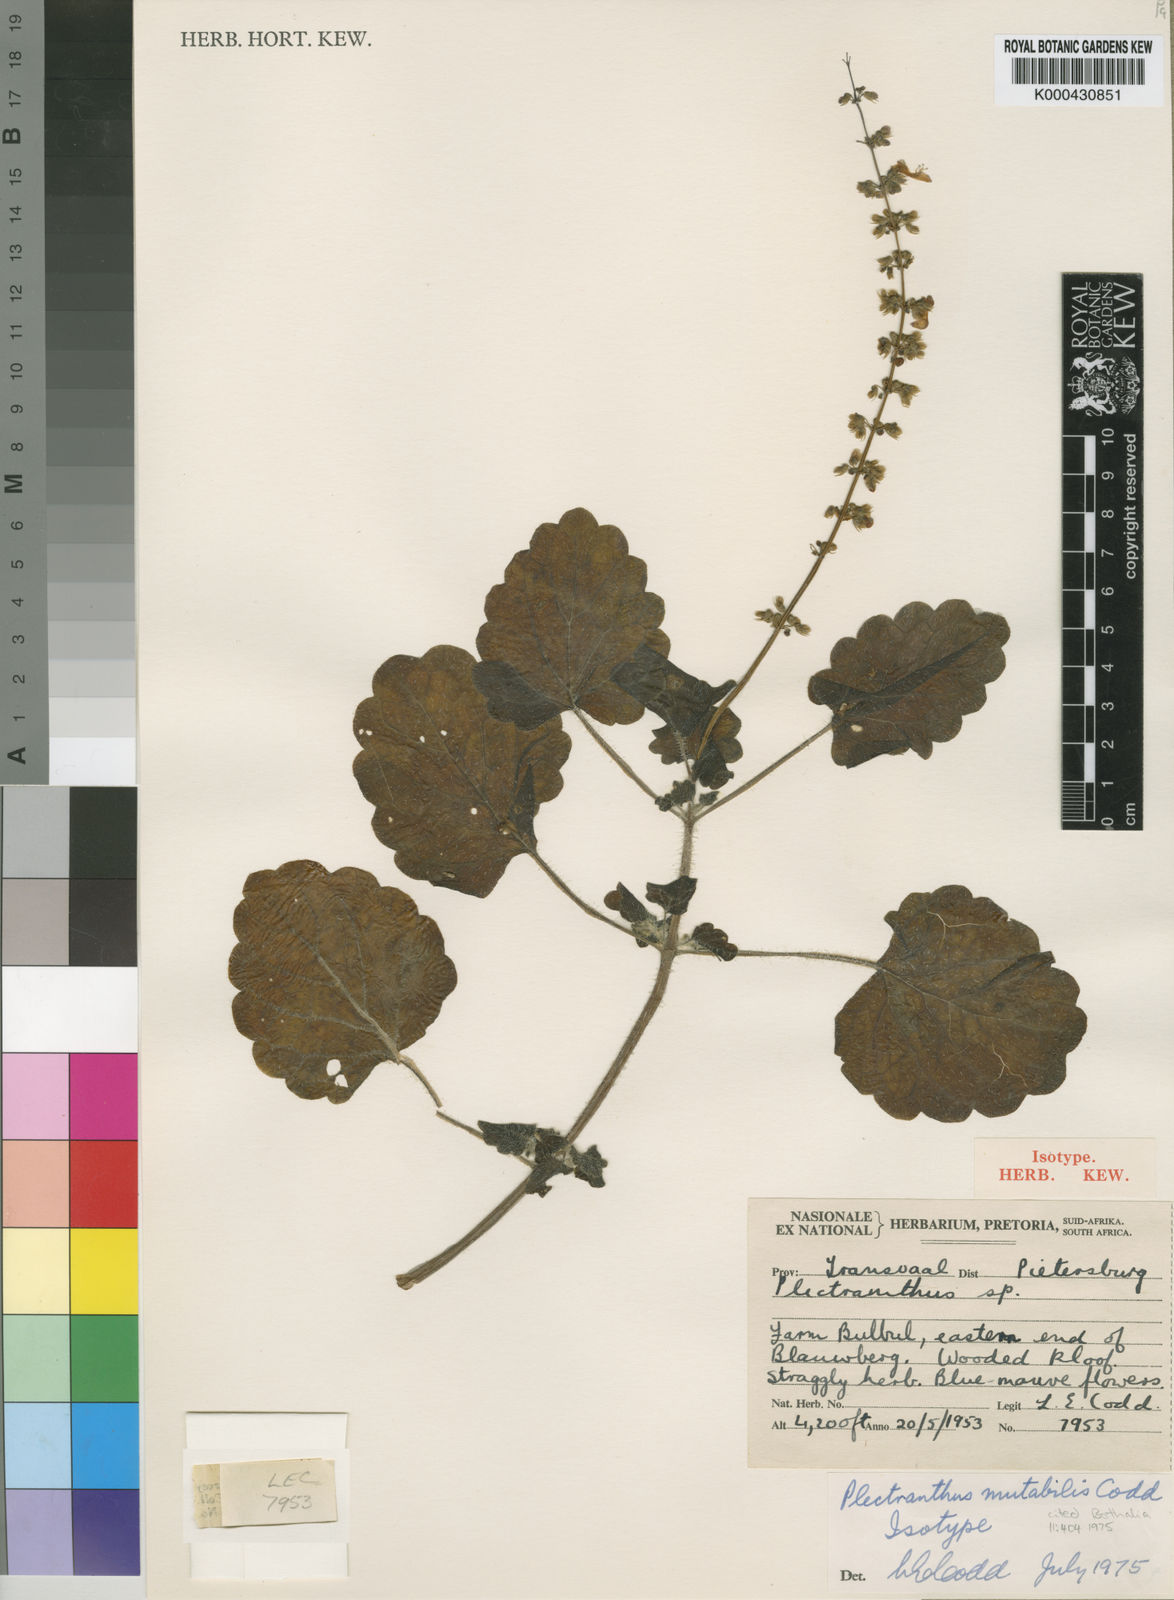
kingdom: Plantae
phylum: Tracheophyta
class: Magnoliopsida
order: Lamiales
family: Lamiaceae
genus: Coleus
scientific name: Coleus mutabilis
